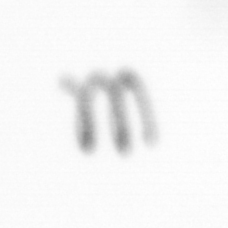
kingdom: Chromista
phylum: Ochrophyta
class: Bacillariophyceae
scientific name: Bacillariophyceae
